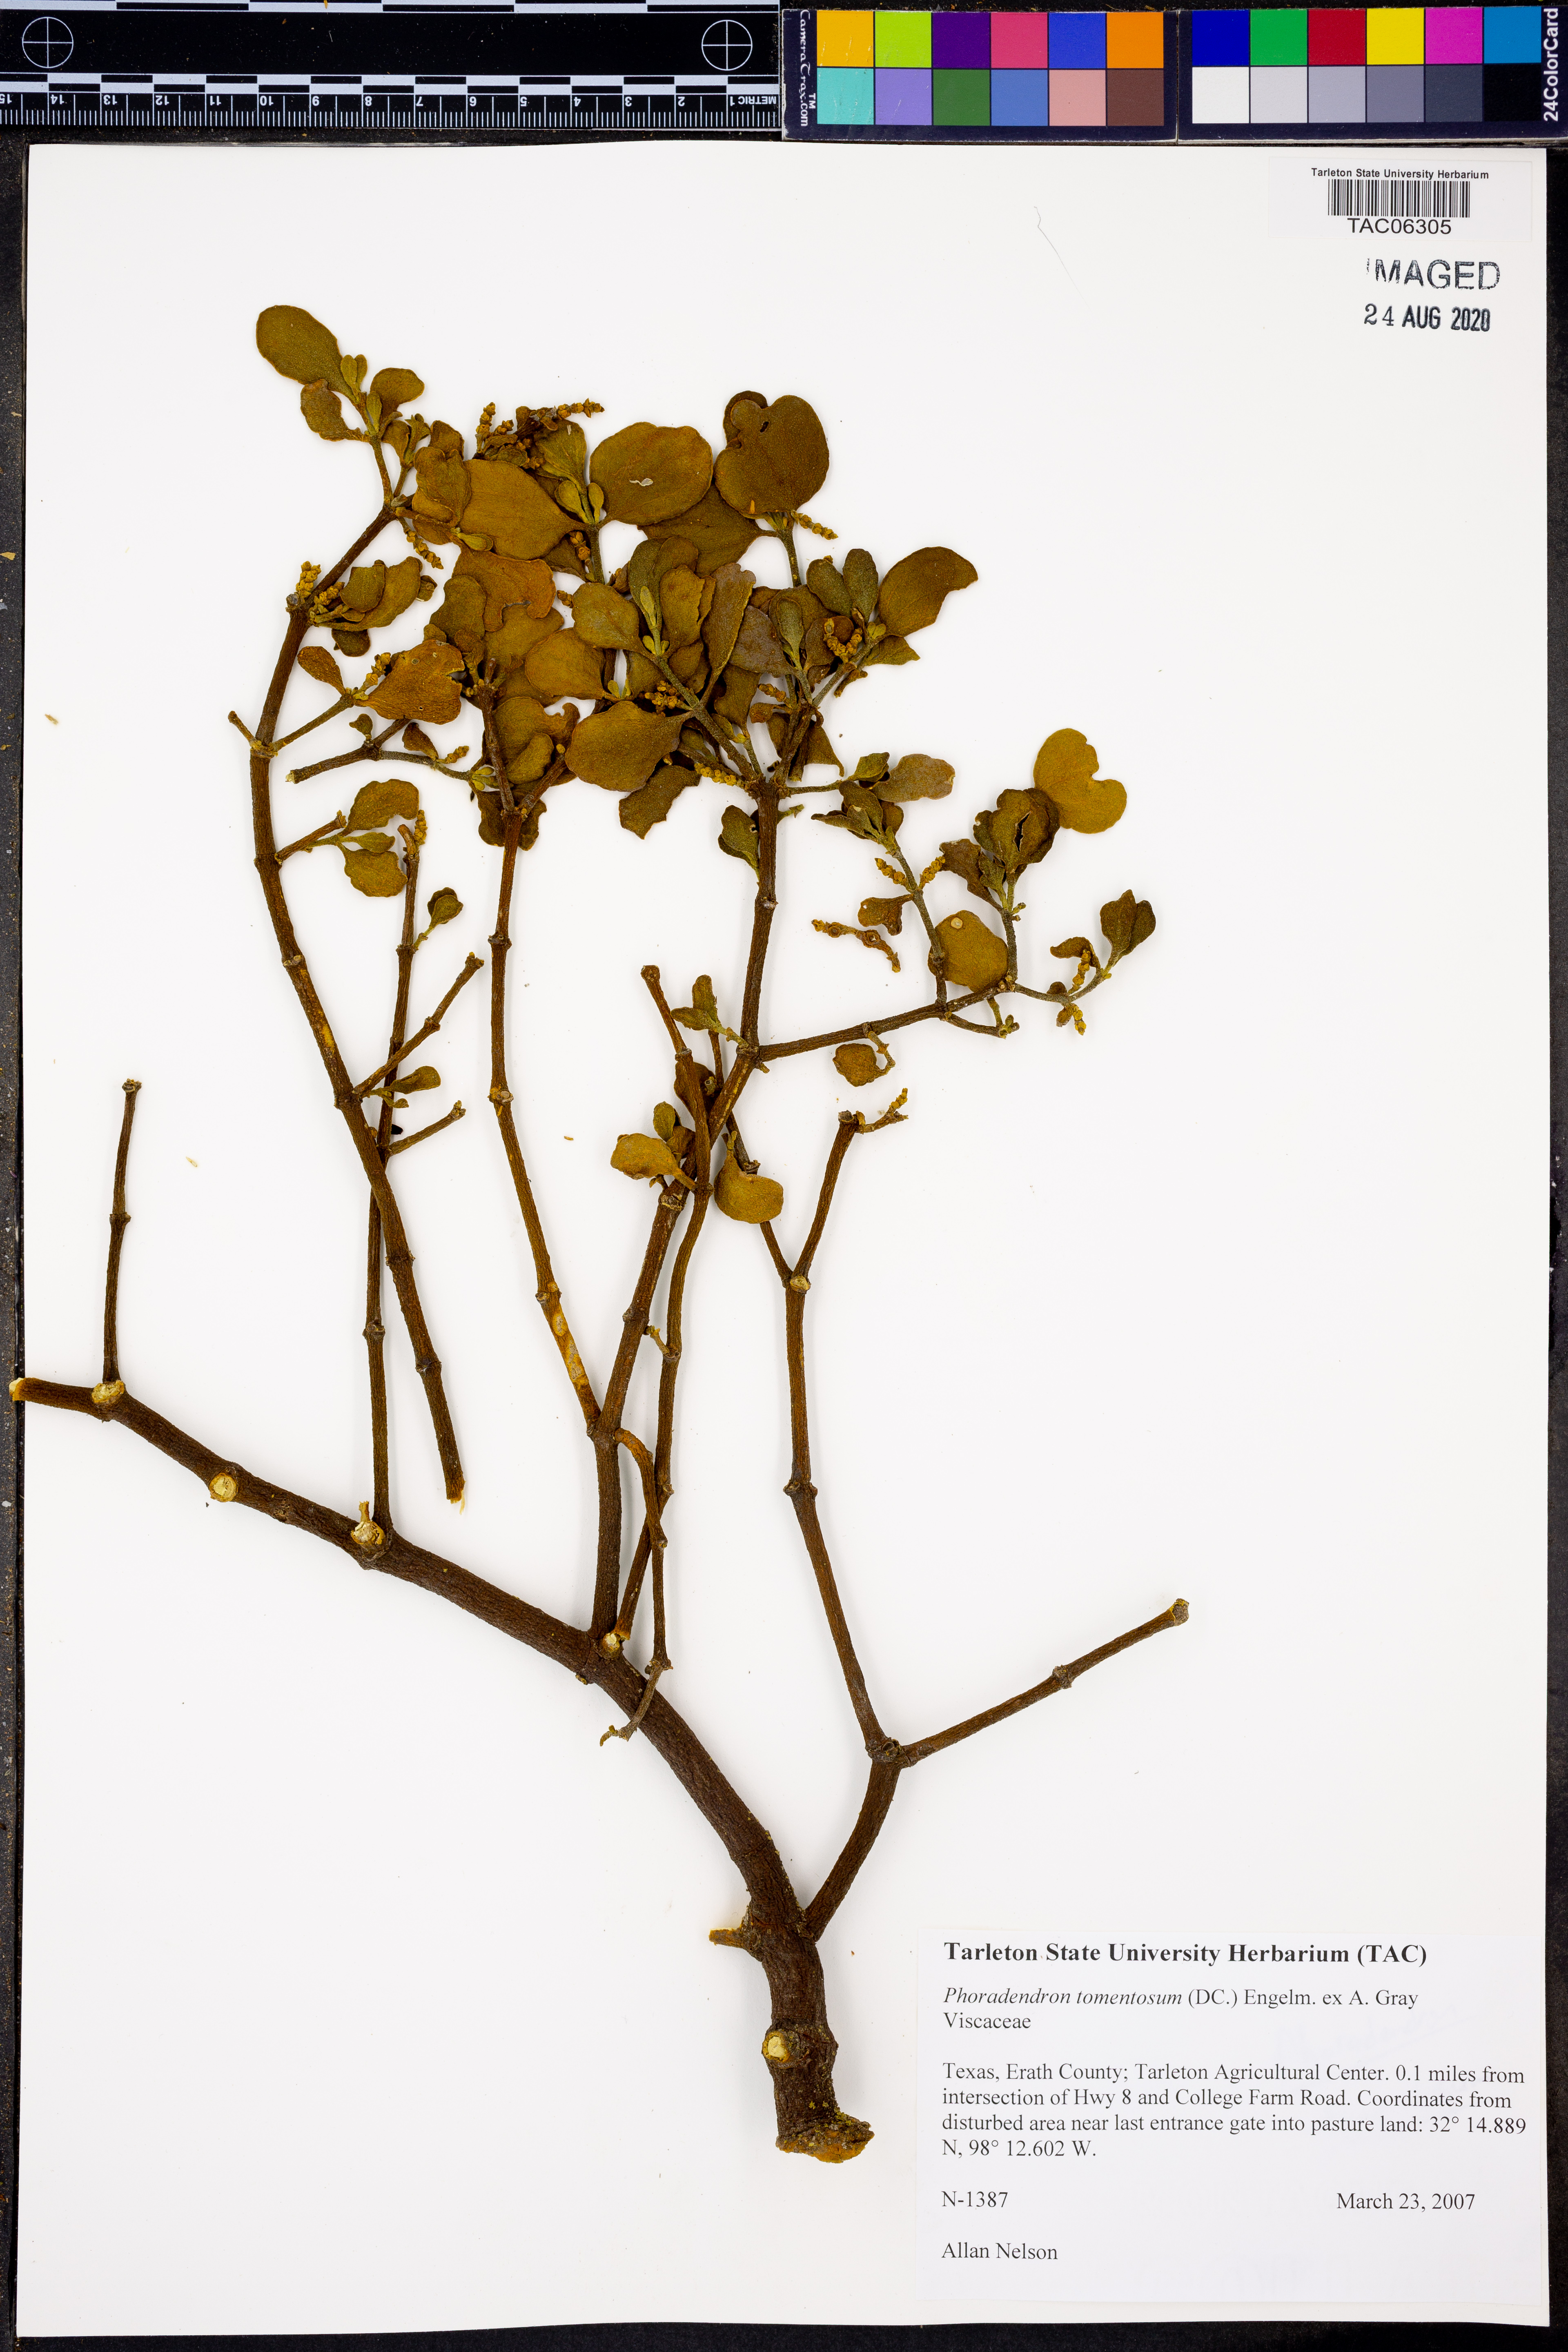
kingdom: Plantae
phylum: Tracheophyta
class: Magnoliopsida
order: Santalales
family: Viscaceae
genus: Phoradendron
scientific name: Phoradendron leucarpum
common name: Pacific mistletoe
